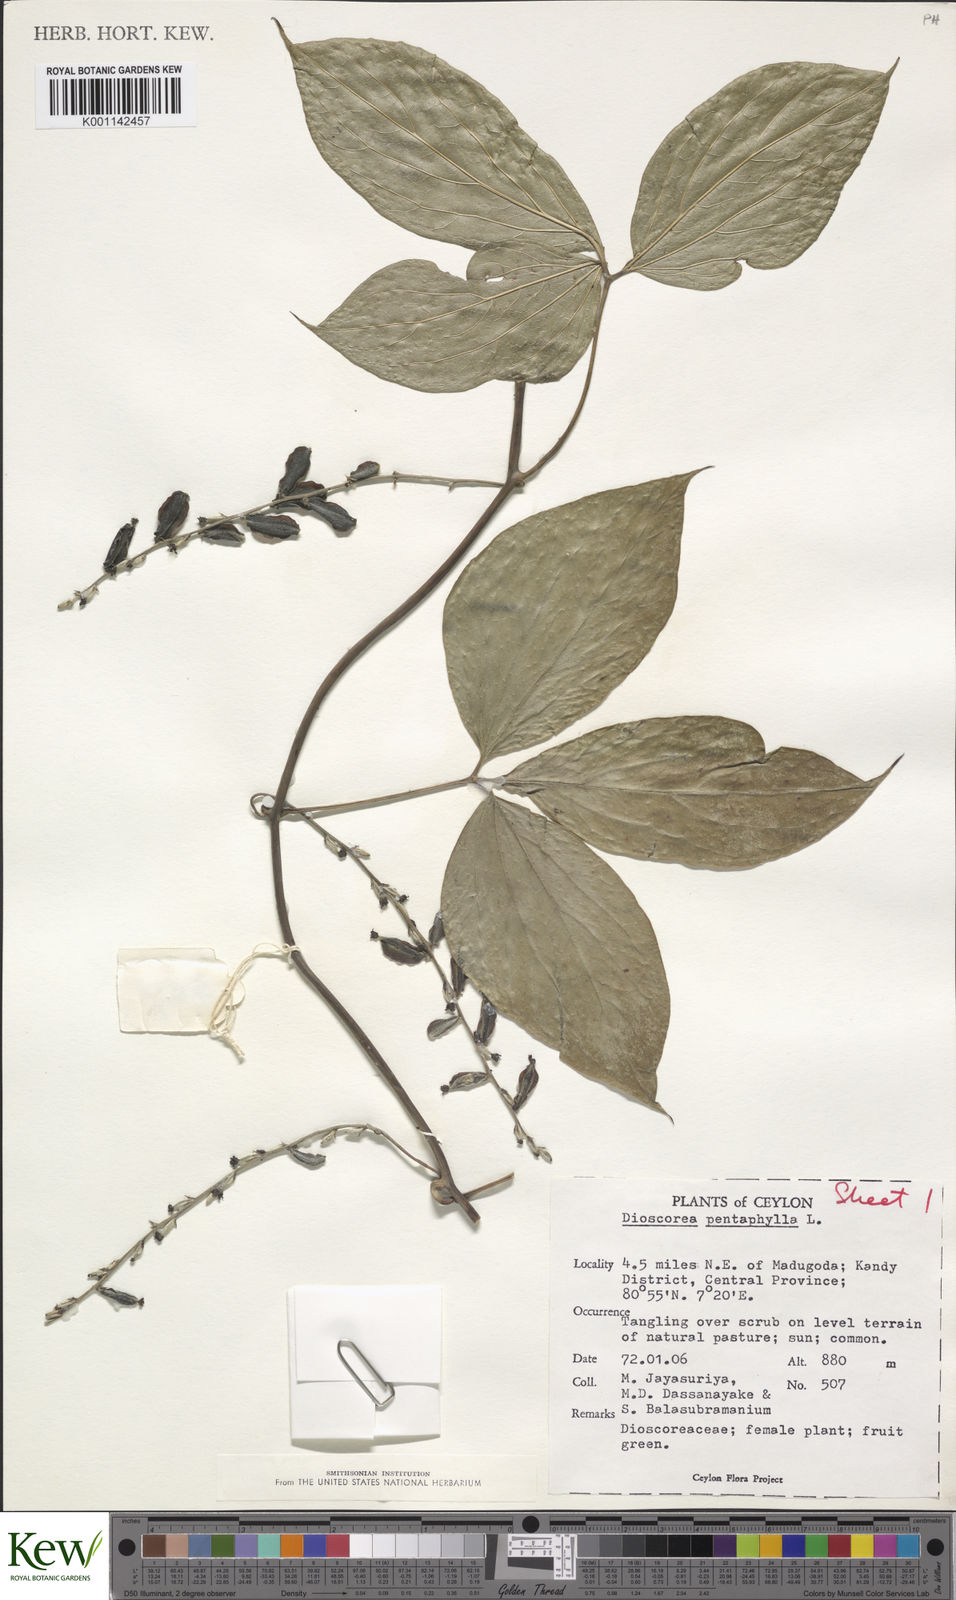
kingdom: Plantae
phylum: Tracheophyta
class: Liliopsida
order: Dioscoreales
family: Dioscoreaceae
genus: Dioscorea
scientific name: Dioscorea pentaphylla
